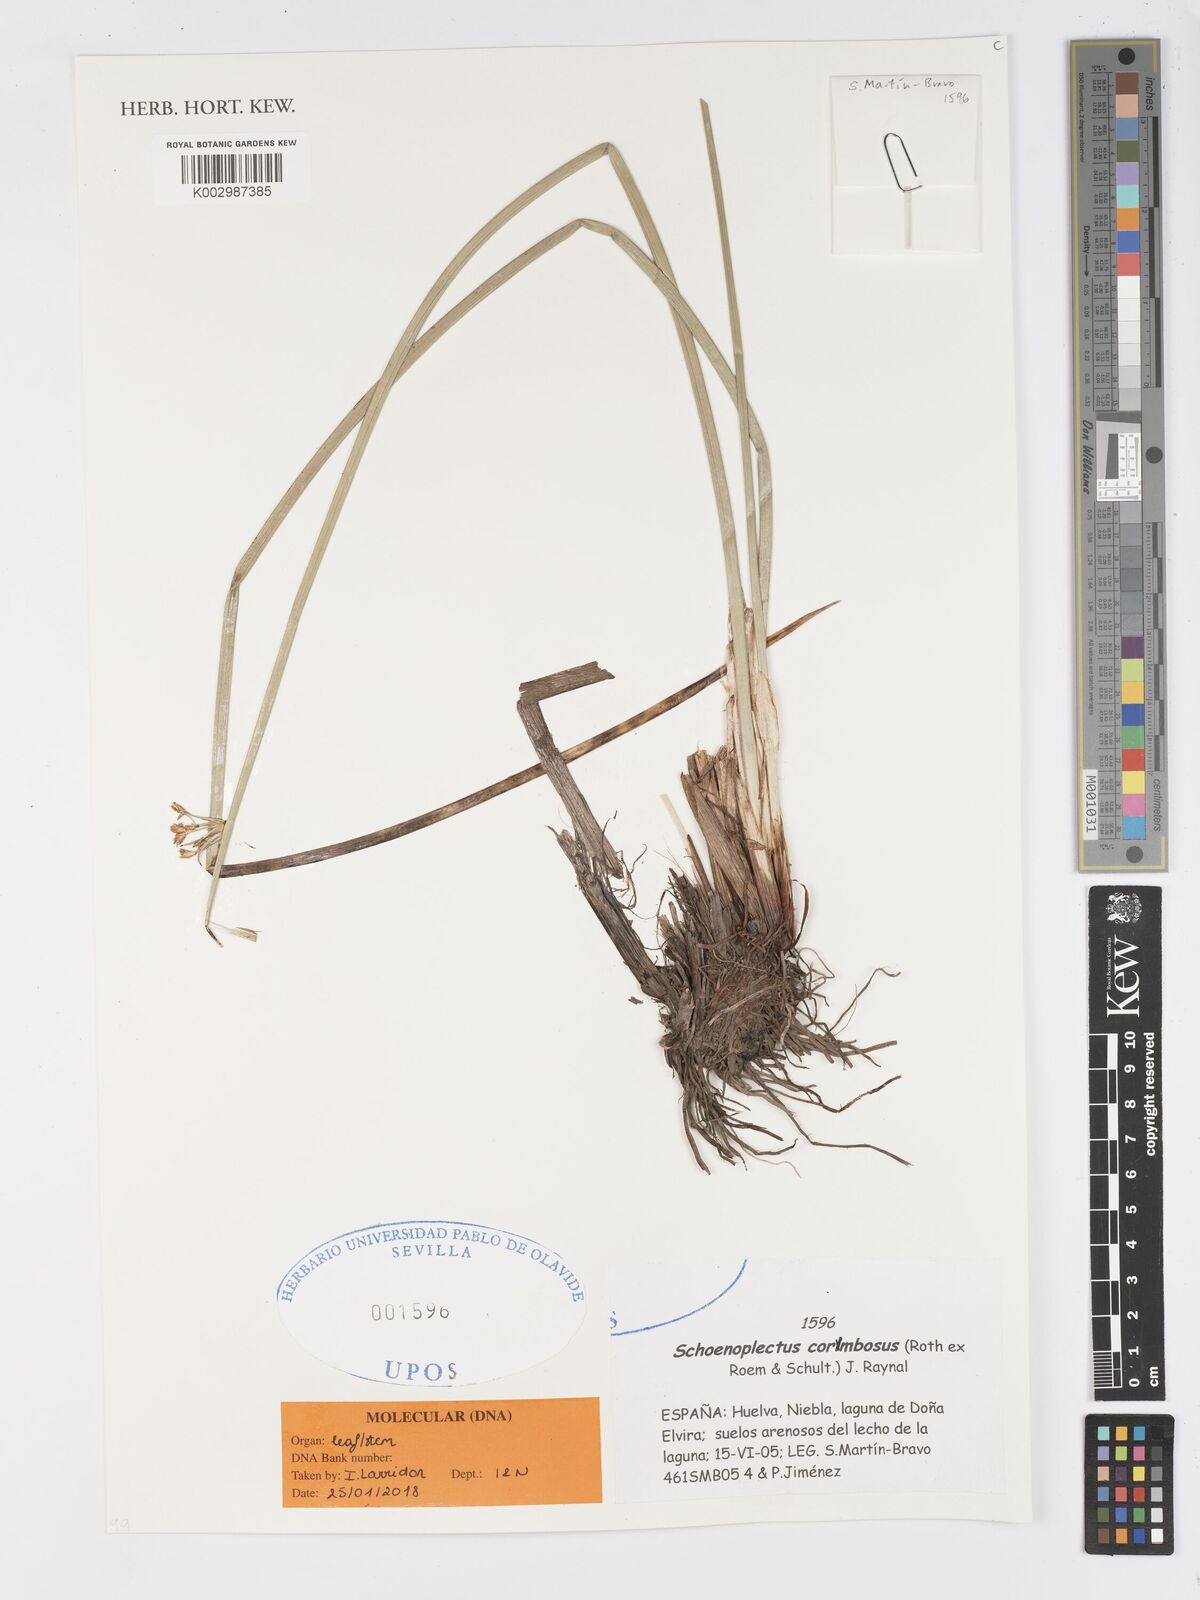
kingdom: Plantae
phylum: Tracheophyta
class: Liliopsida
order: Poales
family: Cyperaceae
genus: Schoenoplectiella
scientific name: Schoenoplectiella corymbosa
